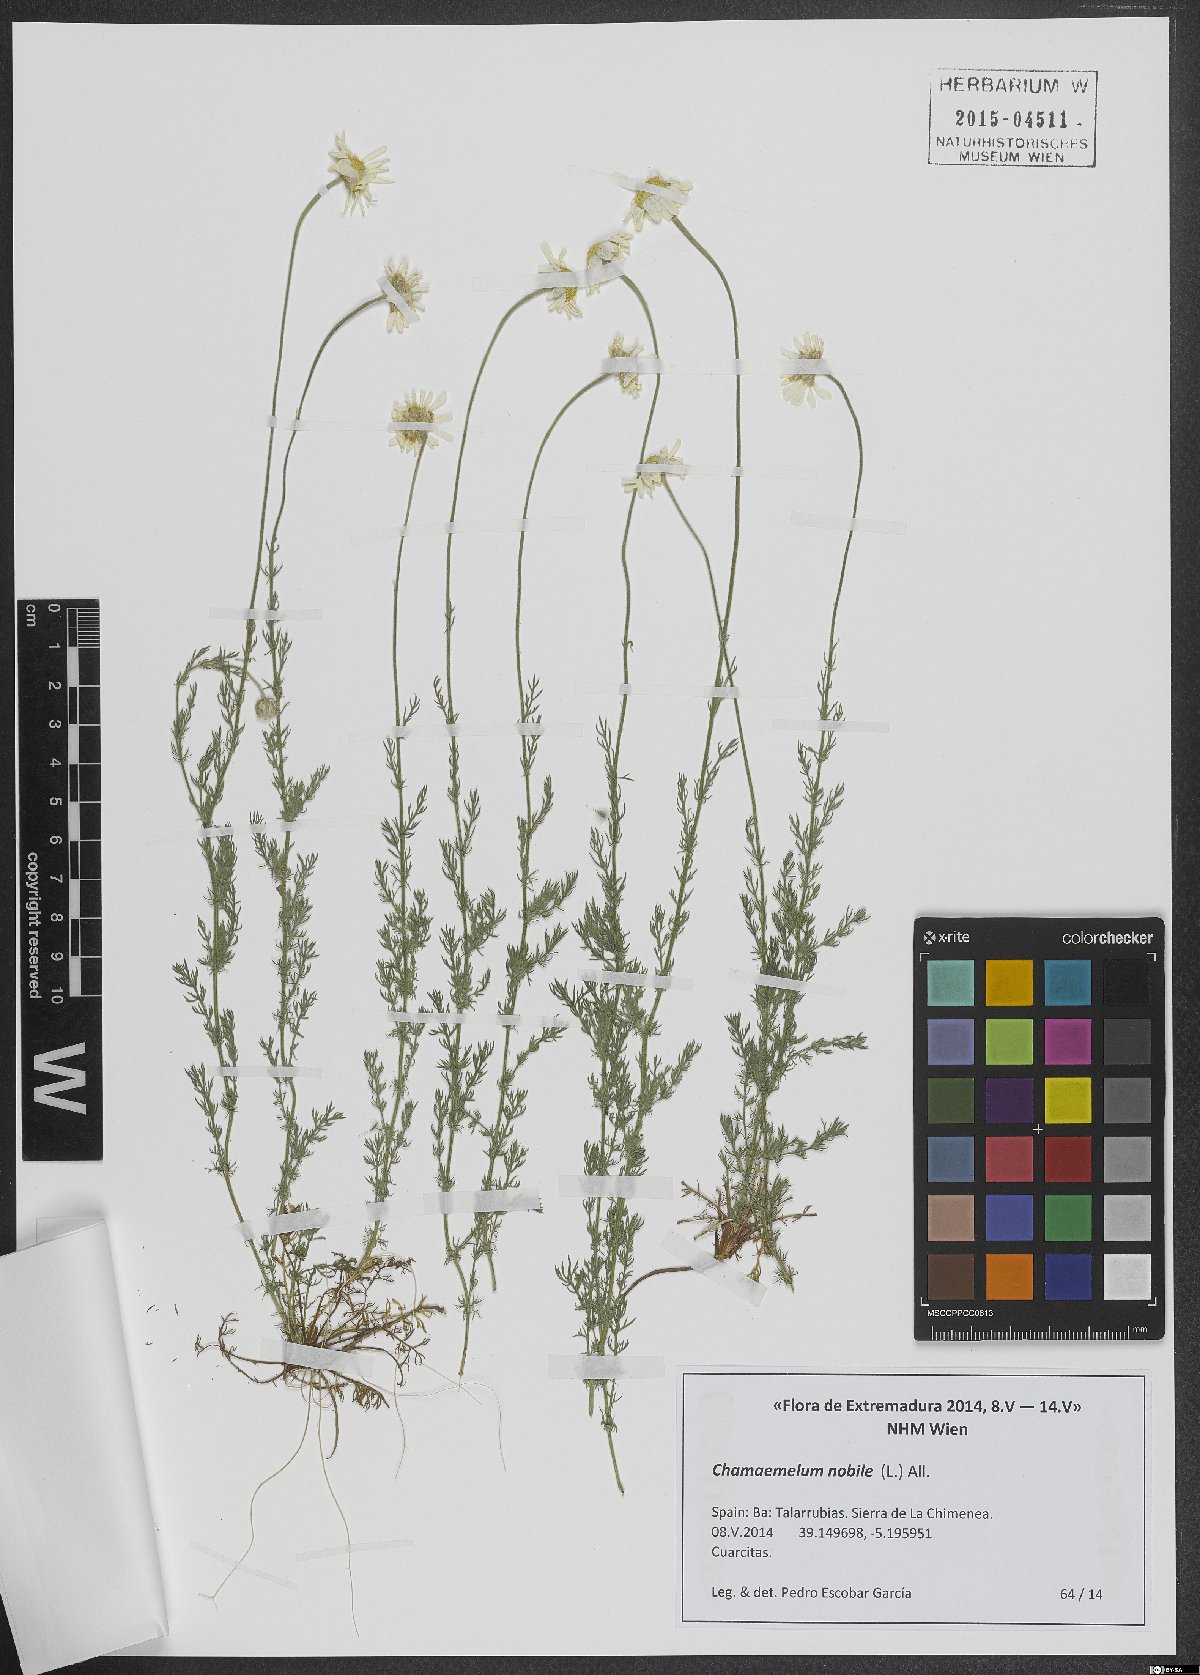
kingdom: Plantae
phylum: Tracheophyta
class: Magnoliopsida
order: Asterales
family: Asteraceae
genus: Chamaemelum
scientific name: Chamaemelum nobile
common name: Roman chamomile
